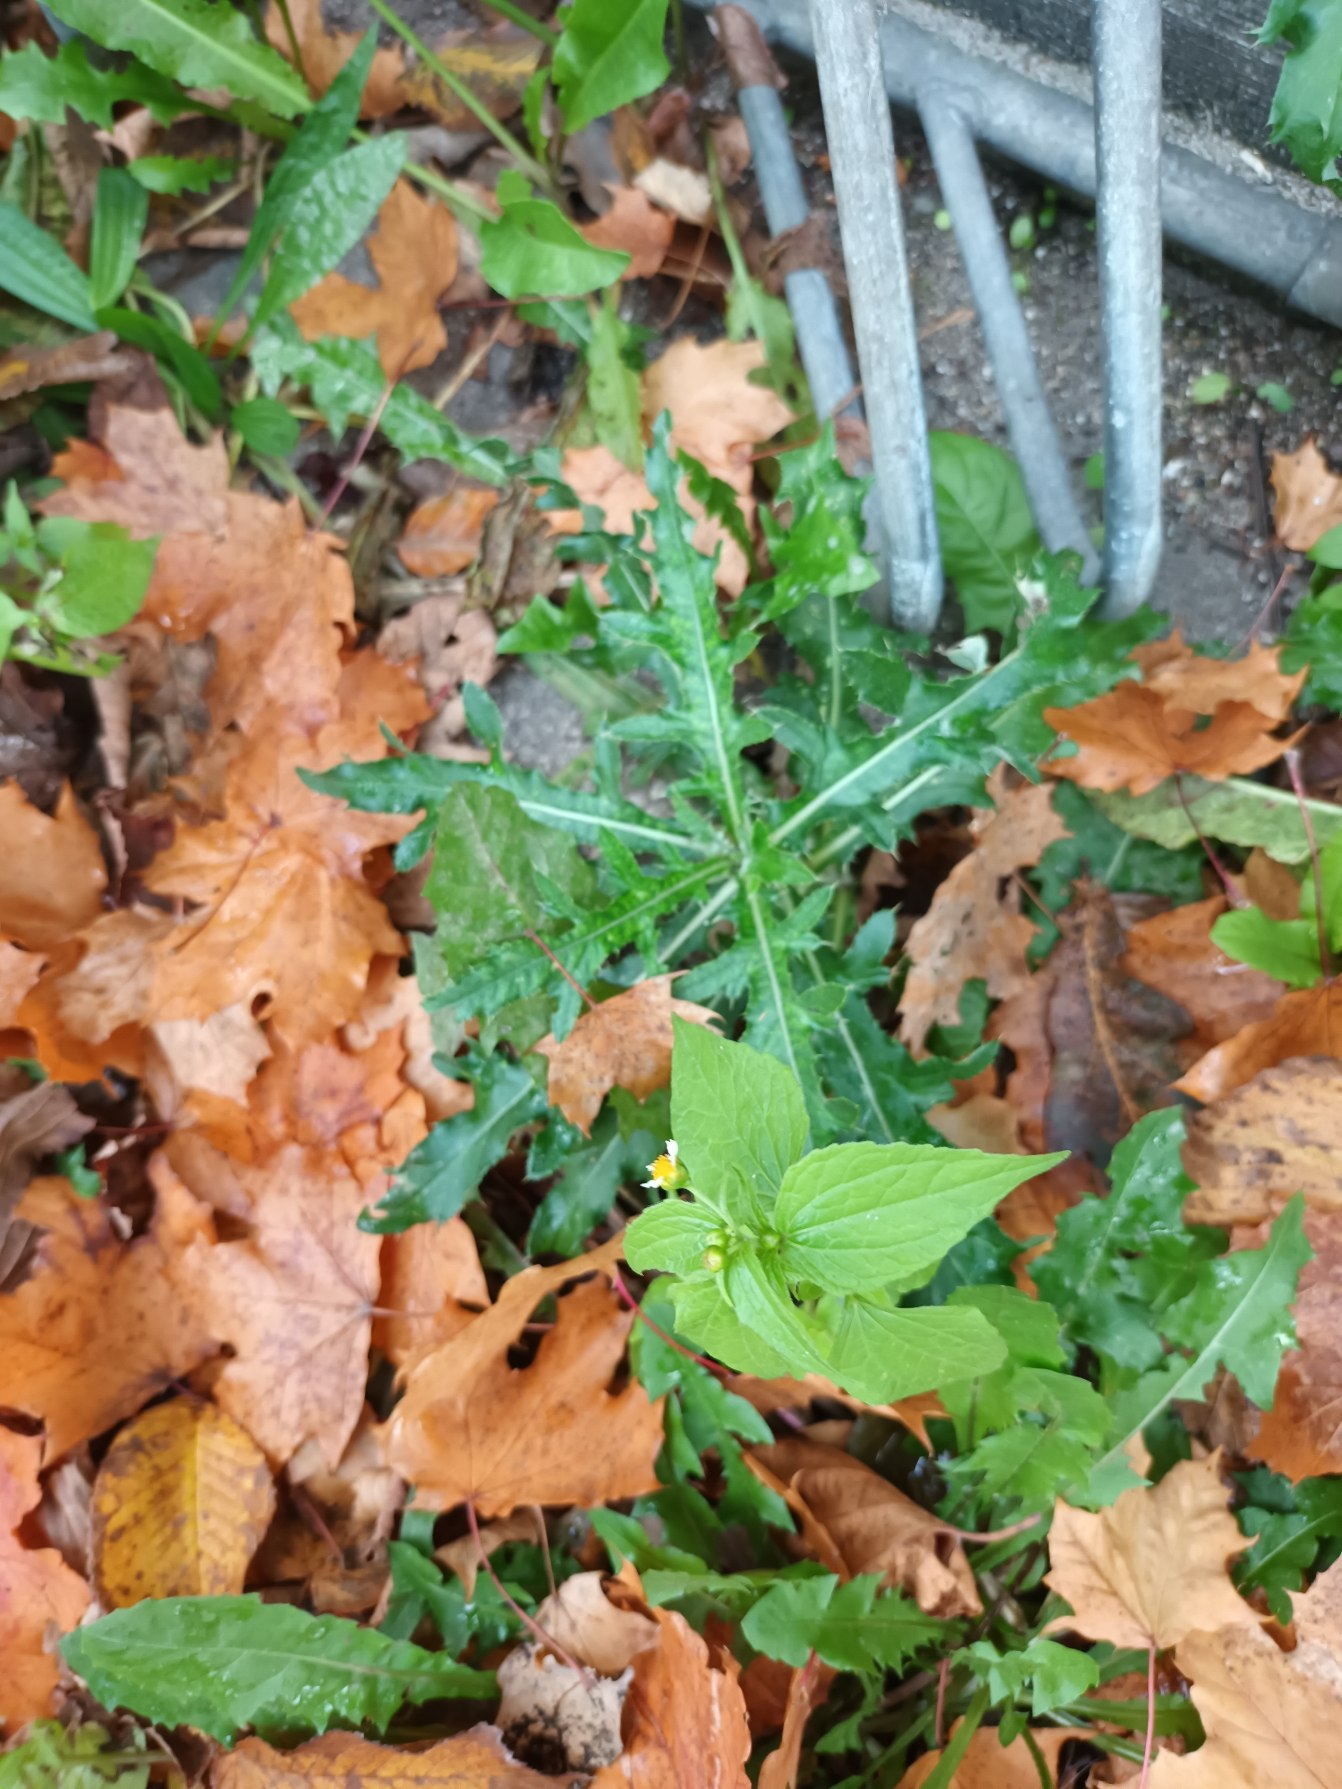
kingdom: Plantae
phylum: Tracheophyta
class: Magnoliopsida
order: Asterales
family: Asteraceae
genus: Cirsium
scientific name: Cirsium arvense
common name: Ager-tidsel
